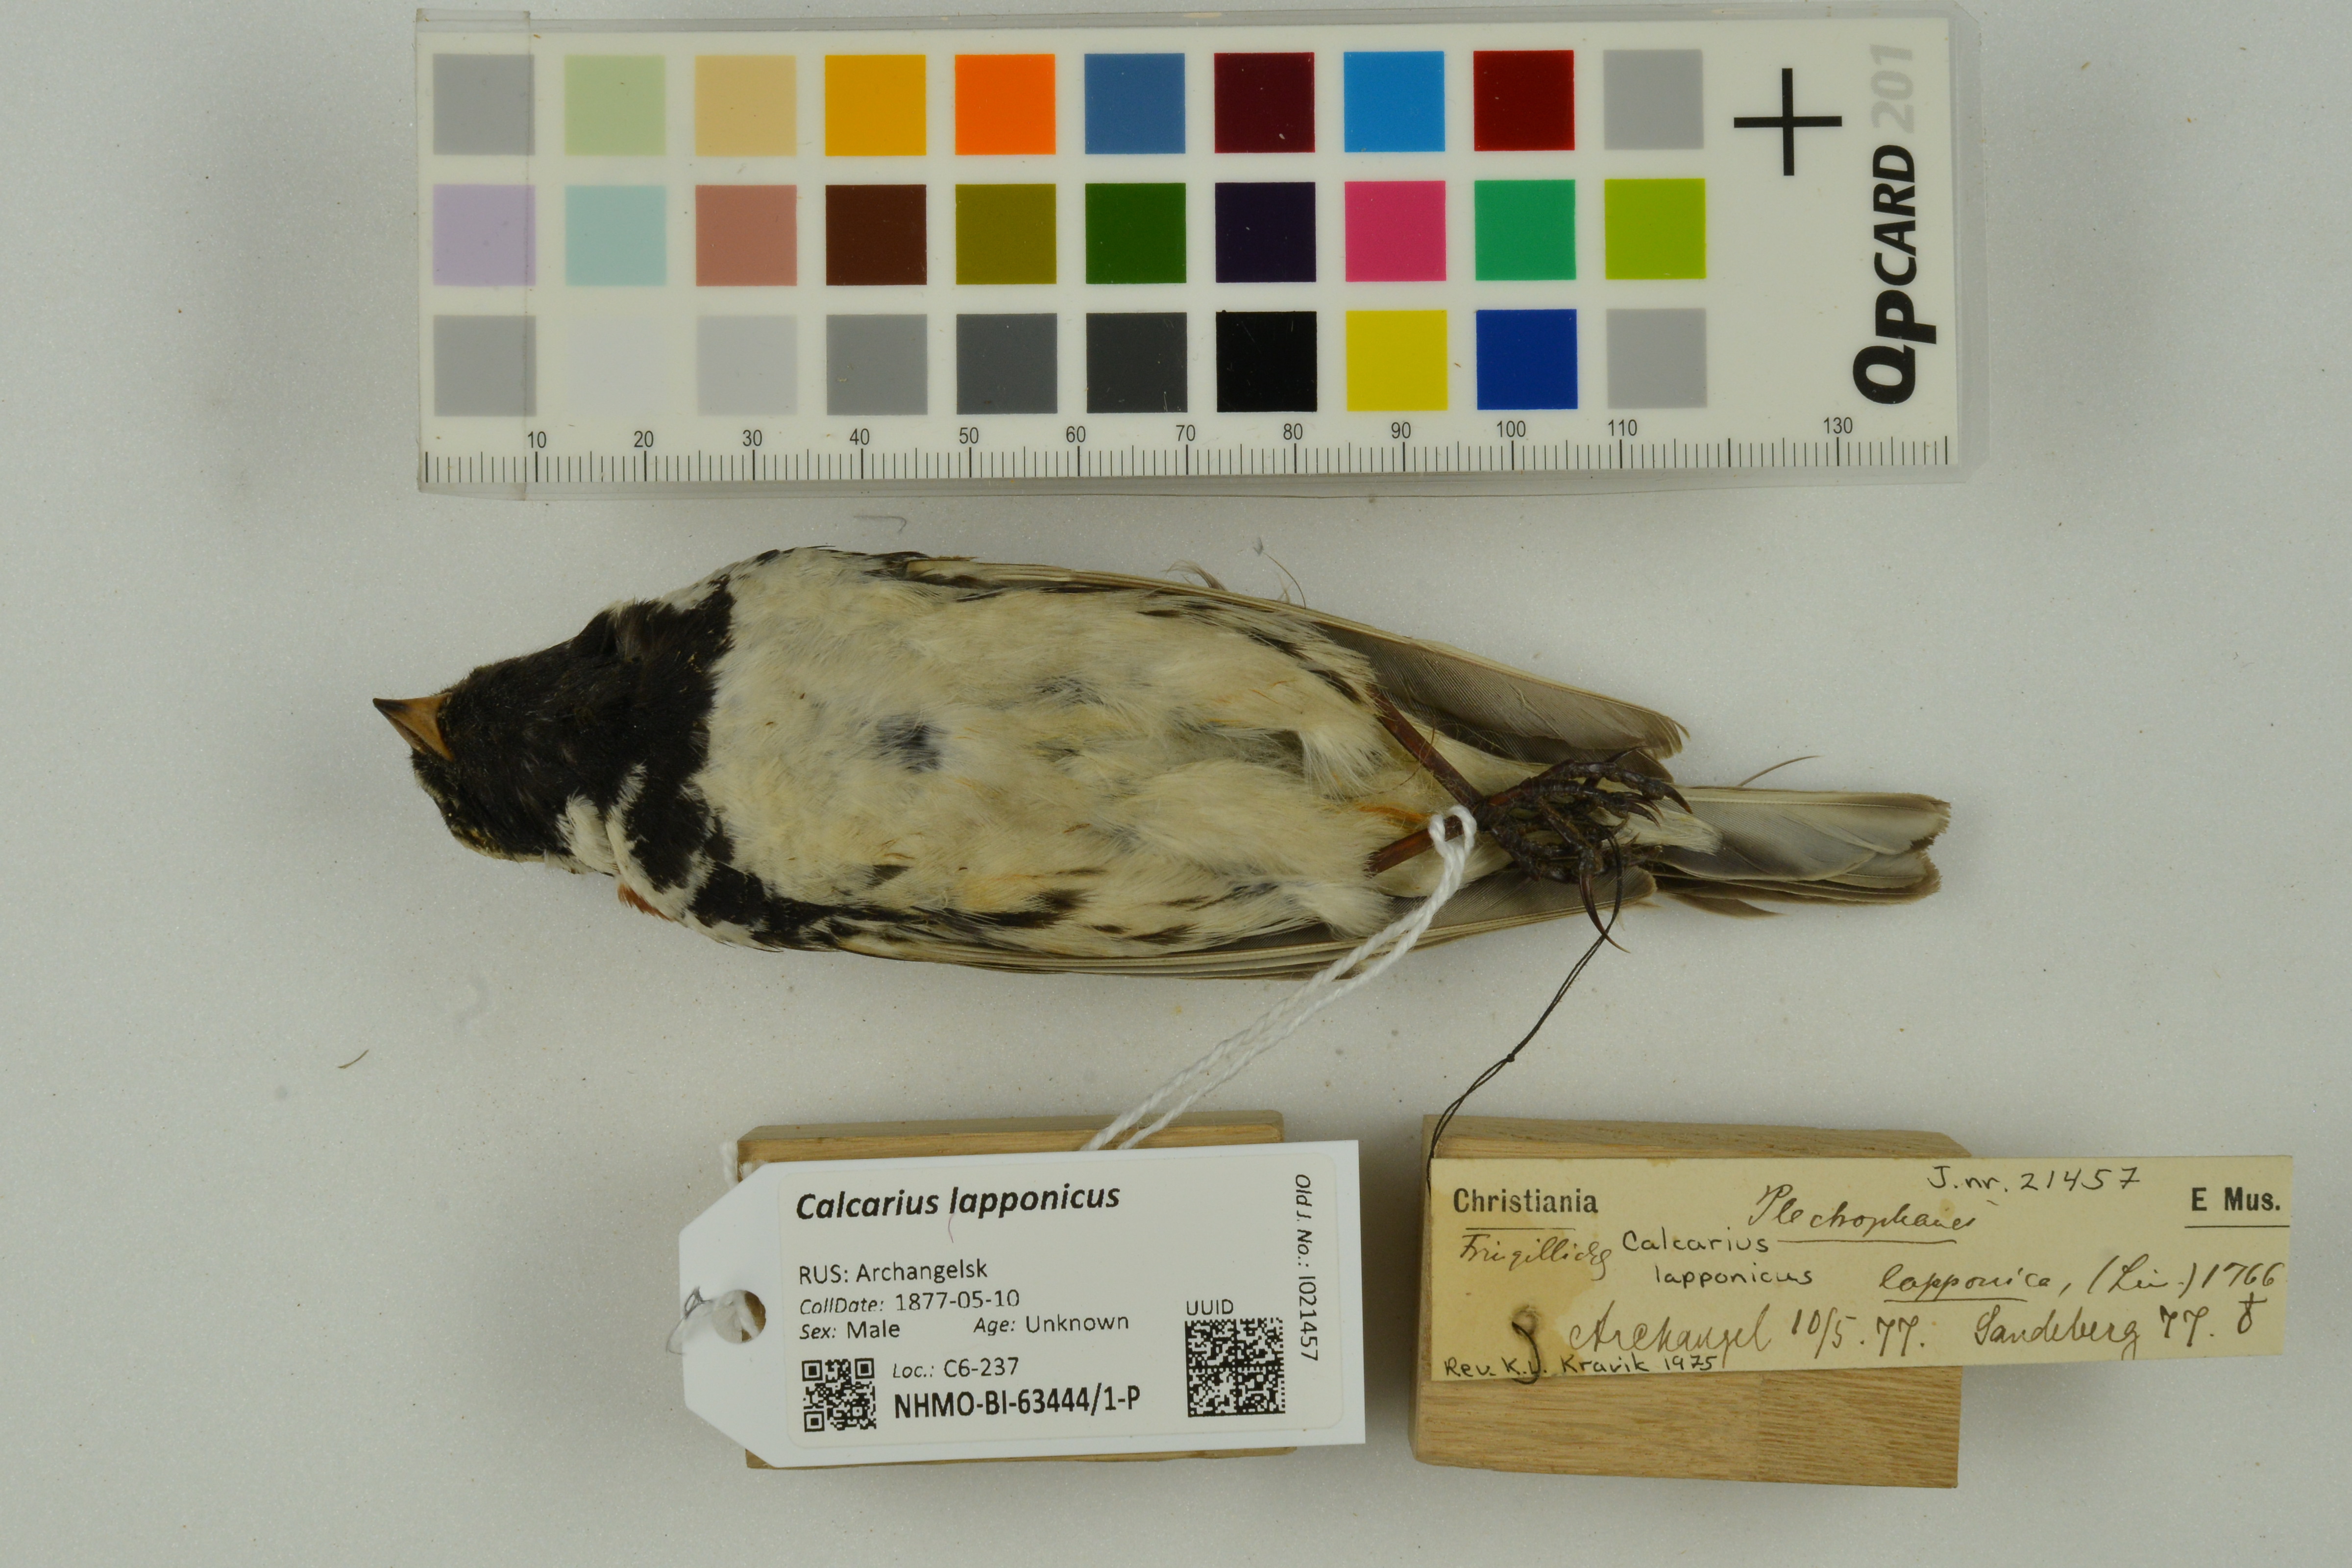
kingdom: Animalia
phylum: Chordata
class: Aves
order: Passeriformes
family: Calcariidae
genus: Calcarius
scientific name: Calcarius lapponicus
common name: Lapland longspur
